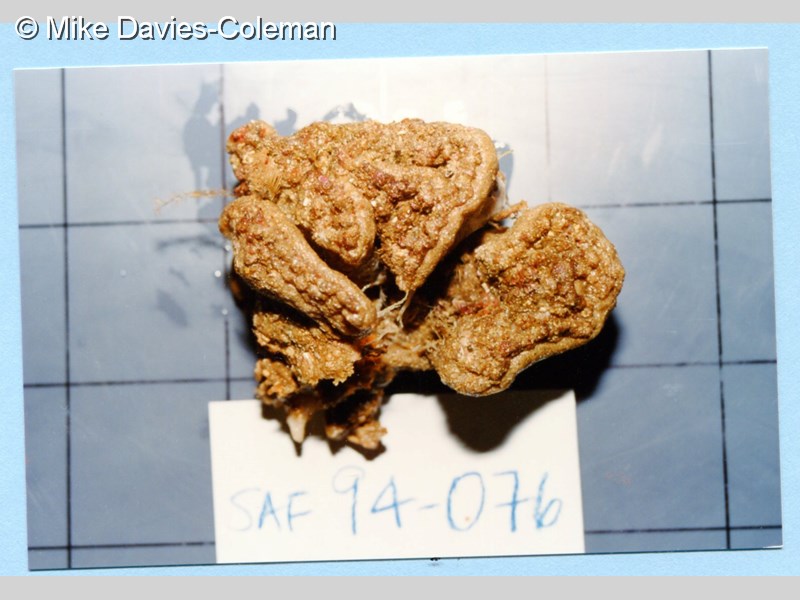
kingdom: Animalia
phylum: Chordata
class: Ascidiacea
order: Aplousobranchia
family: Polycitoridae
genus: Eudistoma
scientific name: Eudistoma
